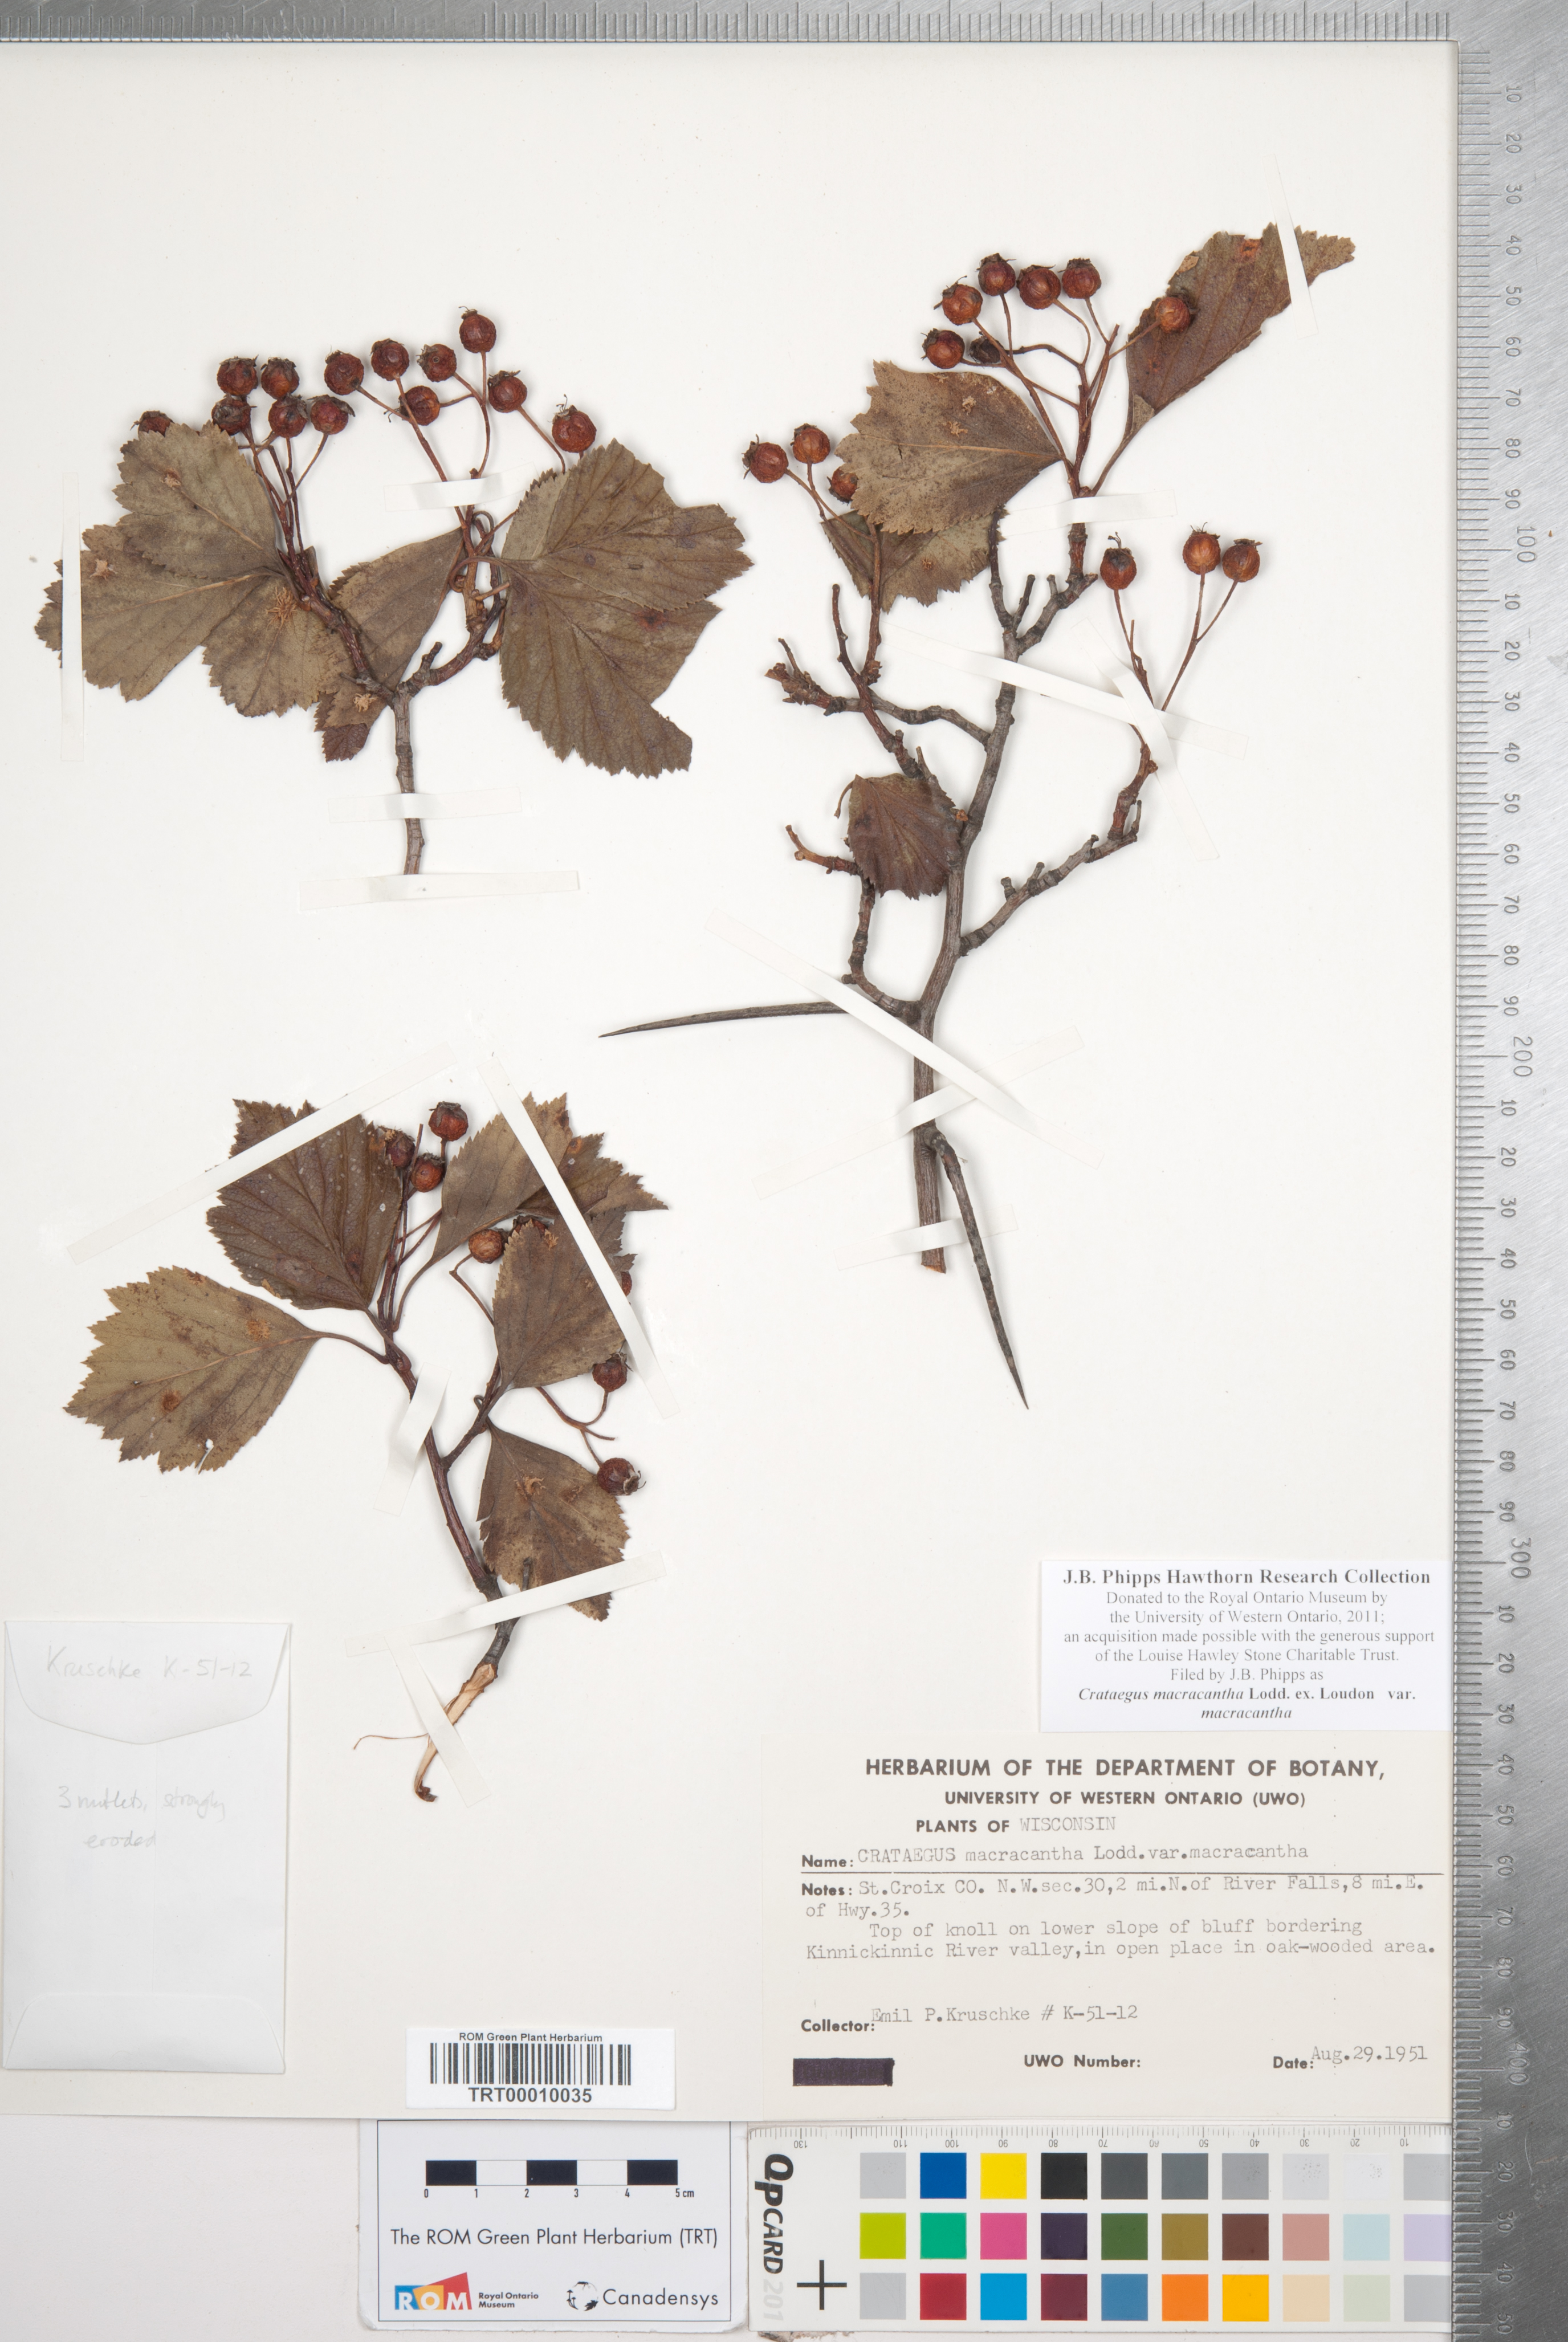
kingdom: Plantae
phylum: Tracheophyta
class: Magnoliopsida
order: Rosales
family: Rosaceae
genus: Crataegus
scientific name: Crataegus macracantha
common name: Large-thorn hawthorn
